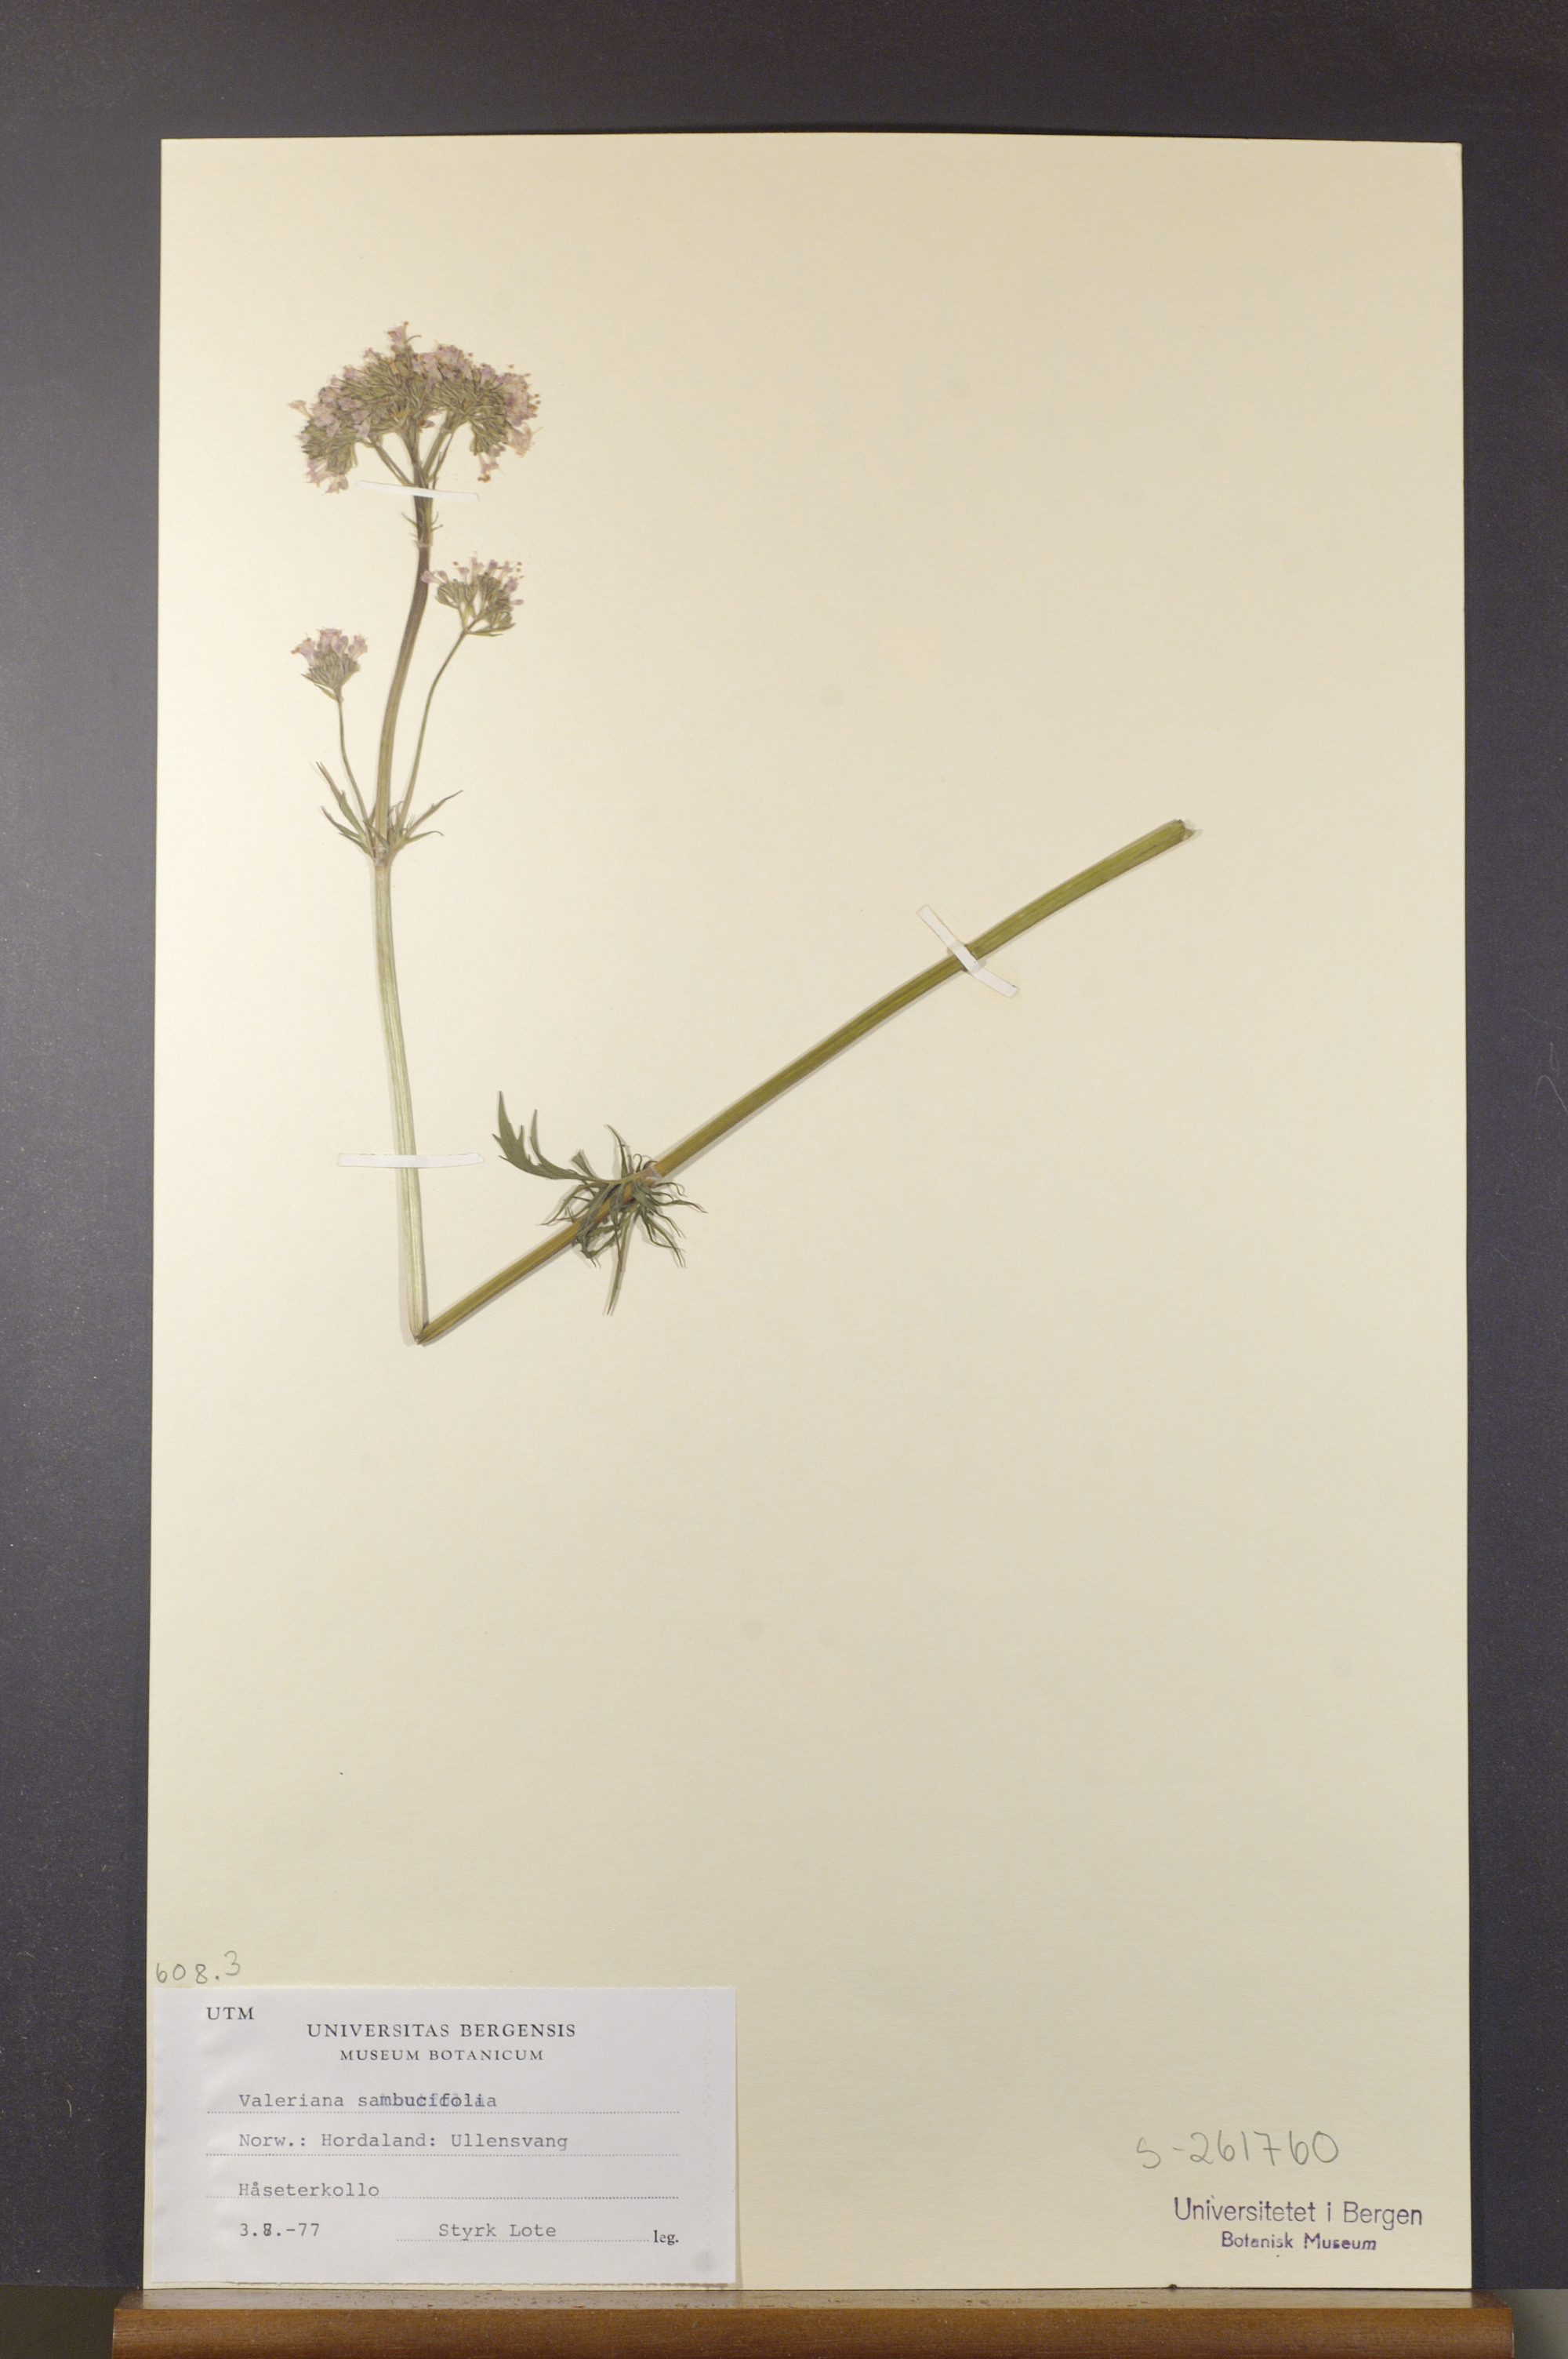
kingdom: Plantae
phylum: Tracheophyta
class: Magnoliopsida
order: Dipsacales
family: Caprifoliaceae
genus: Valeriana
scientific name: Valeriana excelsa
